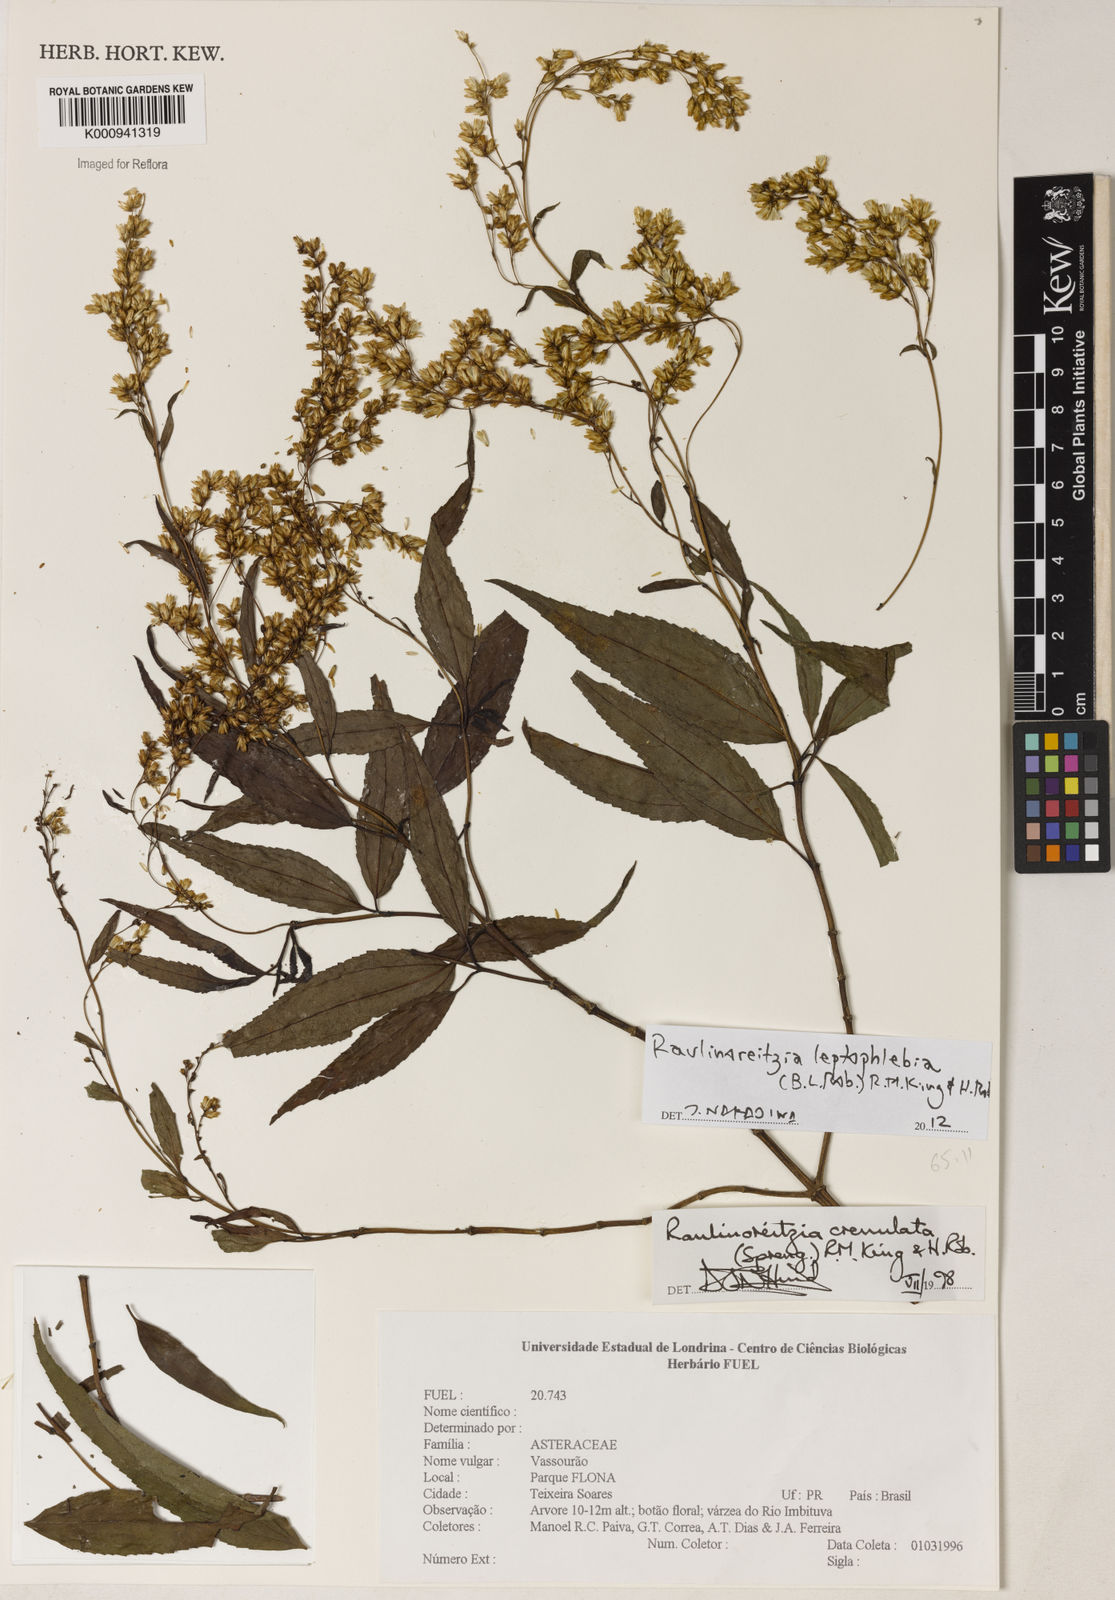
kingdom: Plantae
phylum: Tracheophyta
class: Magnoliopsida
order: Asterales
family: Asteraceae
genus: Raulinoreitzia
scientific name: Raulinoreitzia leptophlebia
